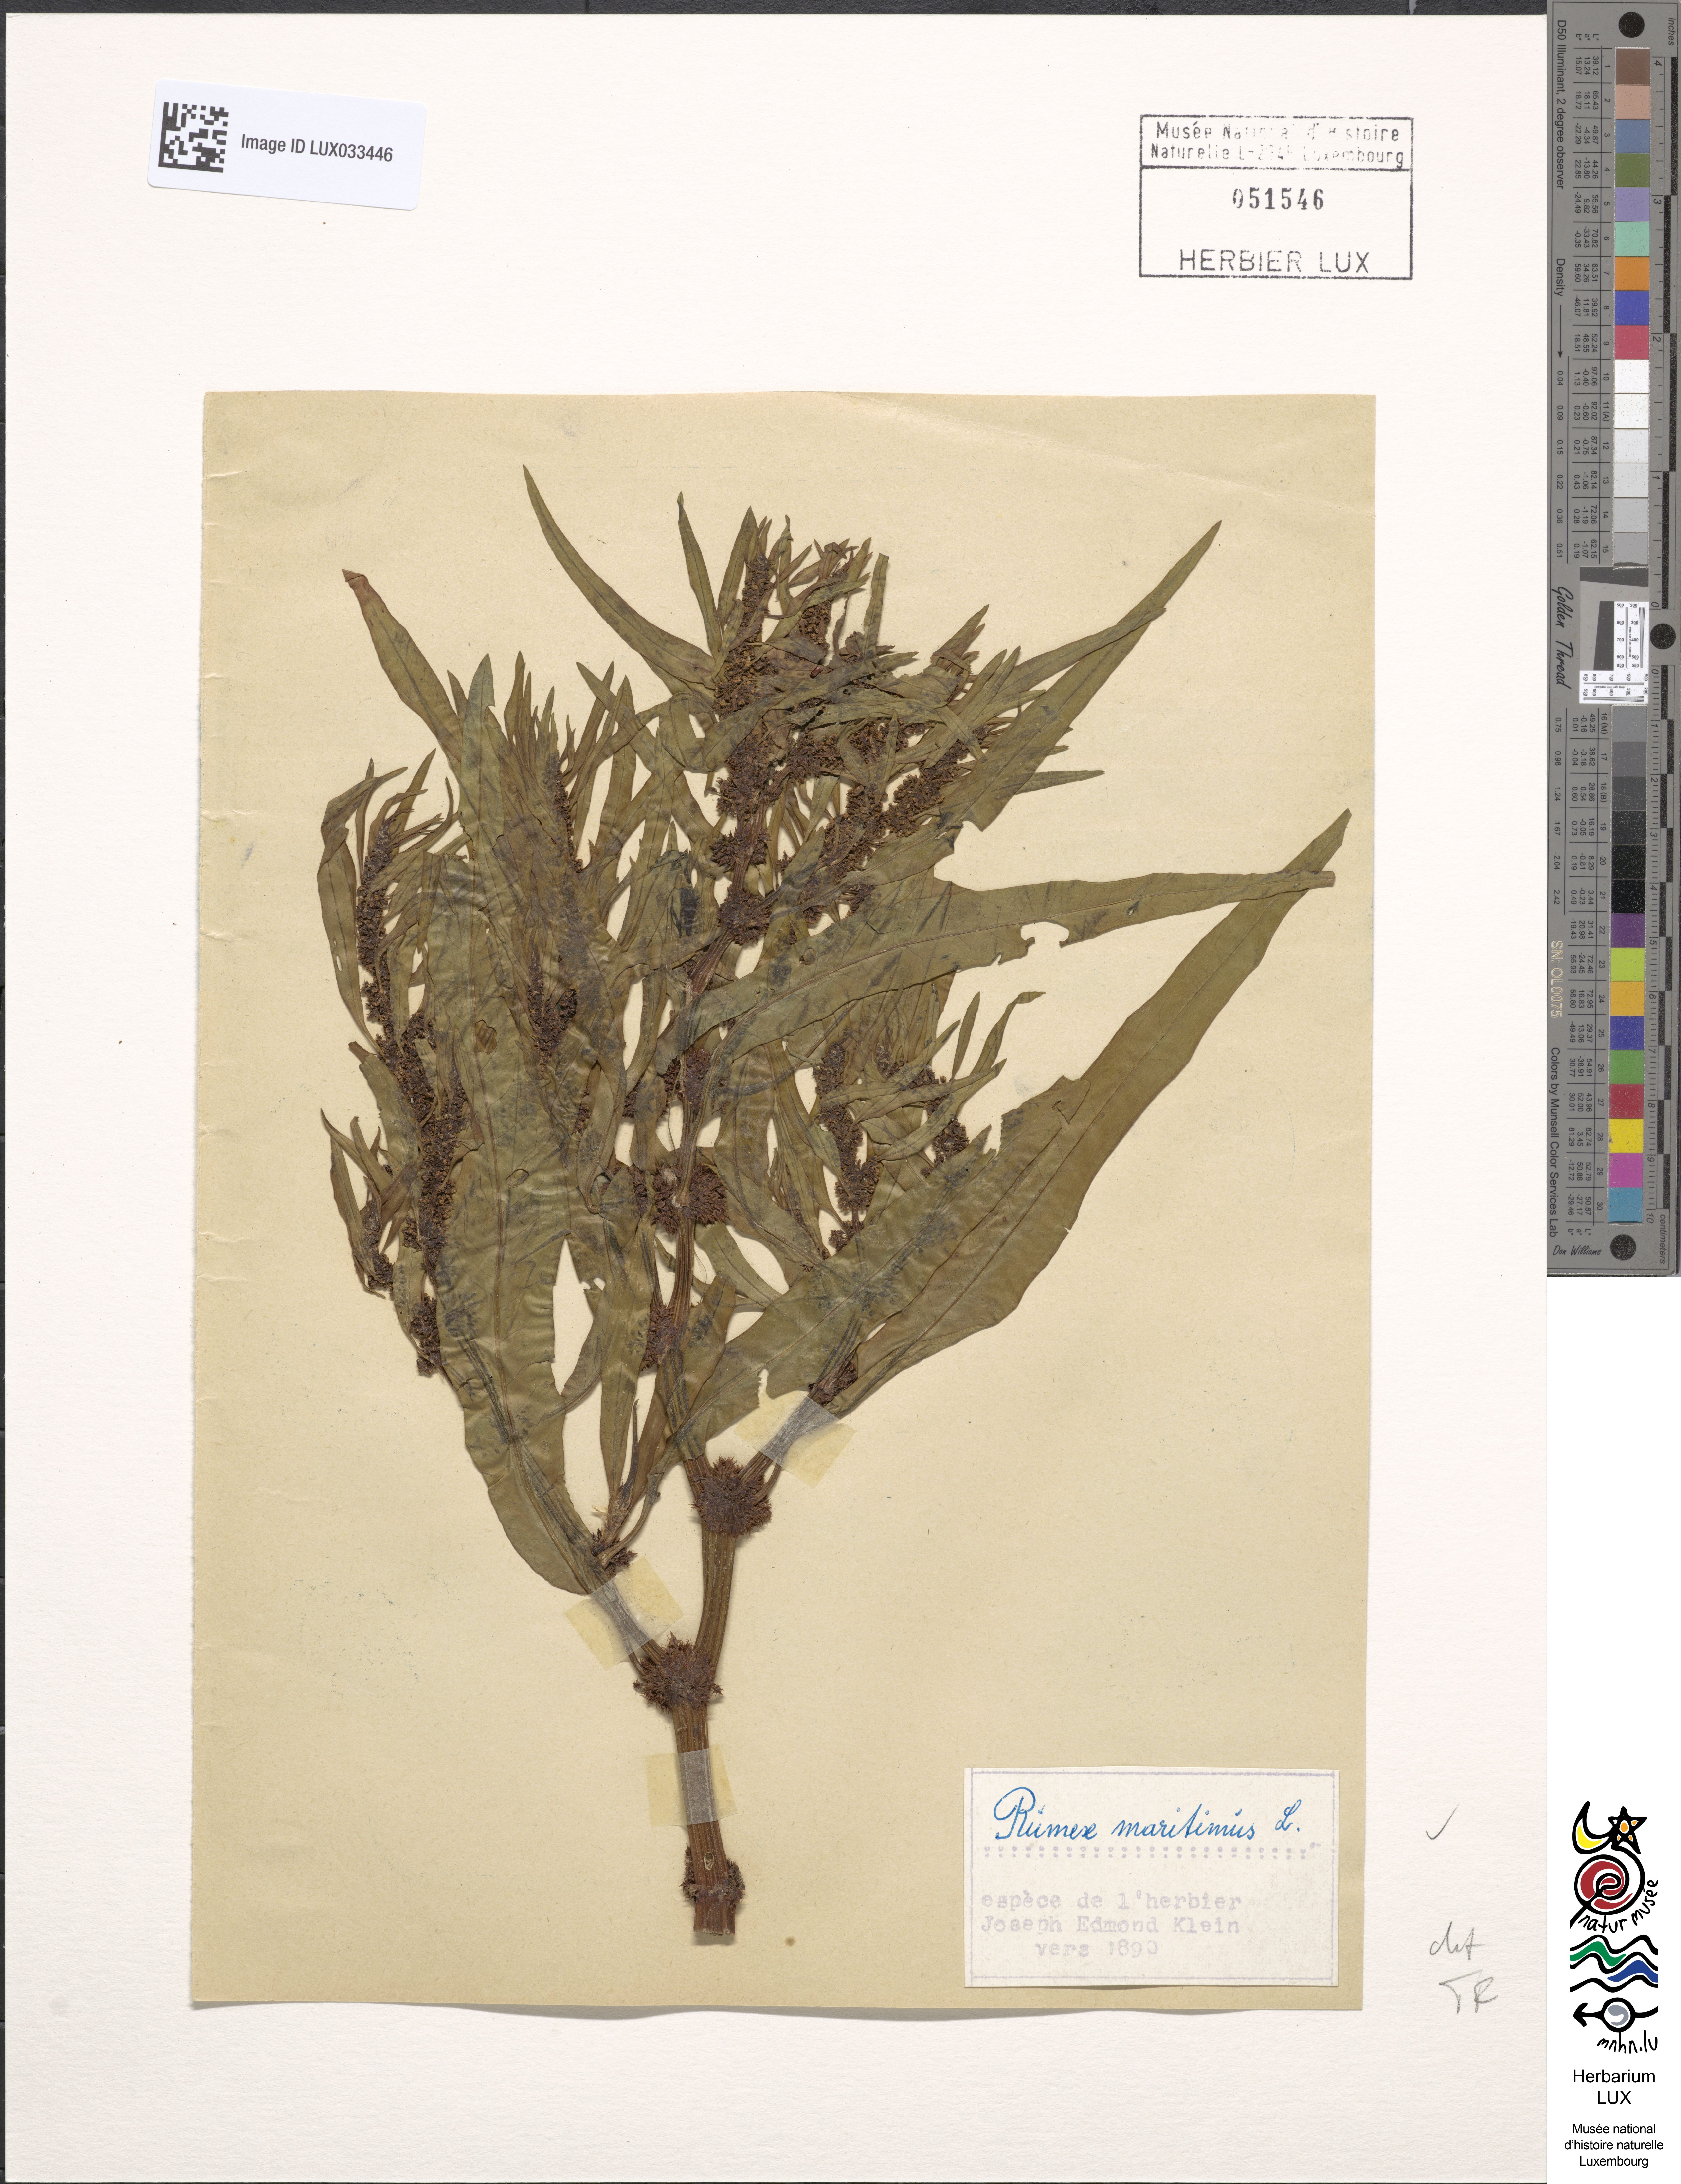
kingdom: Plantae
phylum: Tracheophyta
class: Magnoliopsida
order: Caryophyllales
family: Polygonaceae
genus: Rumex
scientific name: Rumex maritimus
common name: Golden dock
